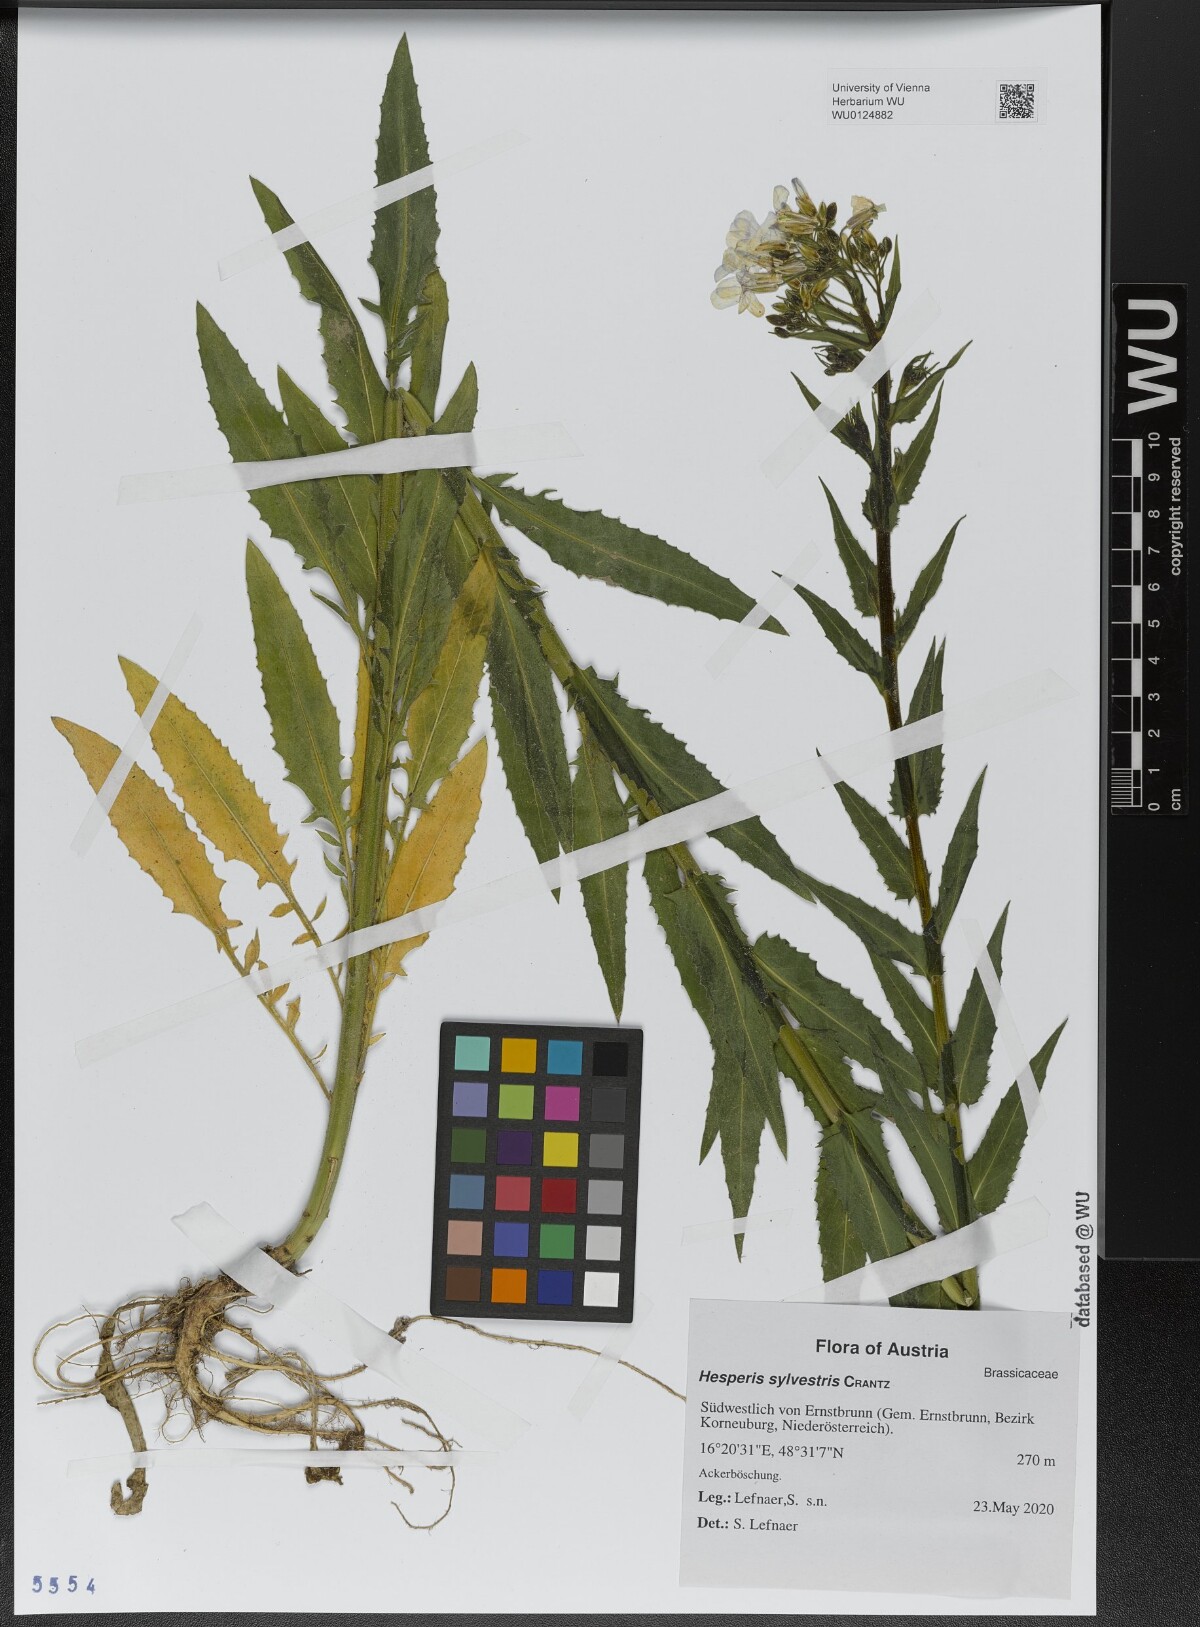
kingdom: Plantae
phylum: Tracheophyta
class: Magnoliopsida
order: Brassicales
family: Brassicaceae
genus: Hesperis
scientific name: Hesperis sylvestris
